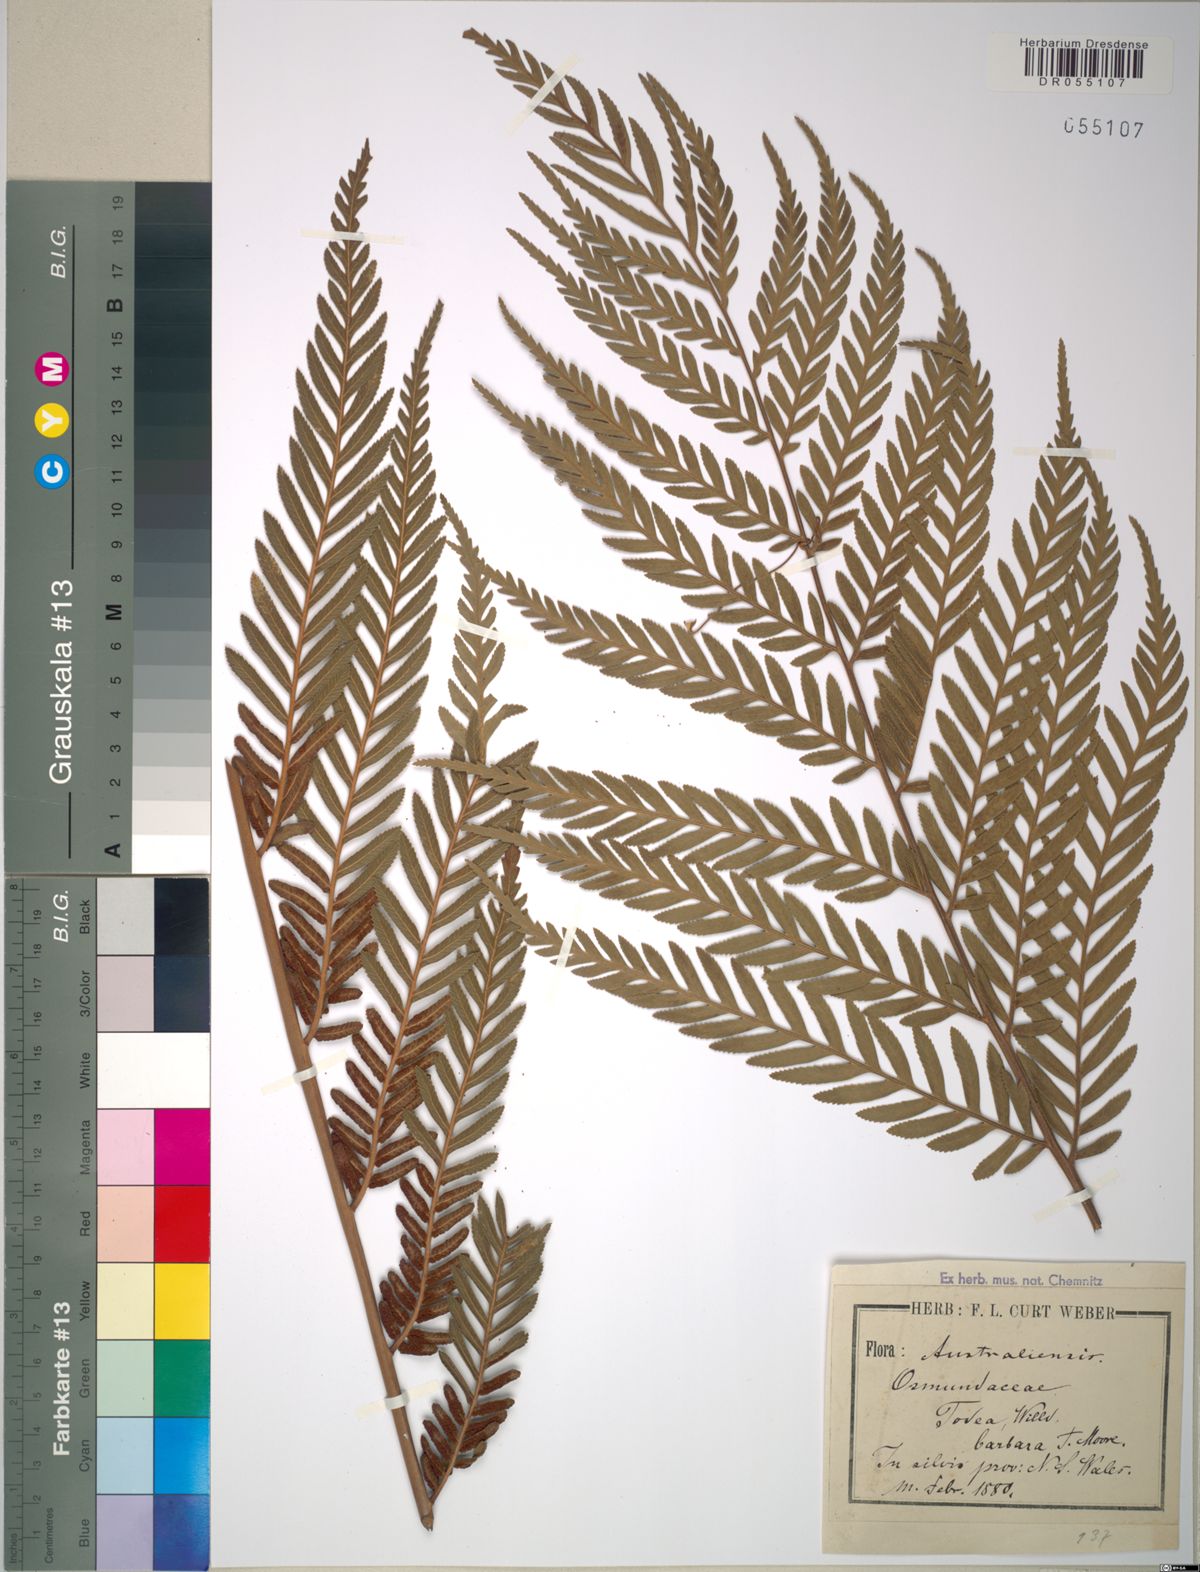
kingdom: Plantae
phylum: Tracheophyta
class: Polypodiopsida
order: Osmundales
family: Osmundaceae
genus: Todea
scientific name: Todea barbara
